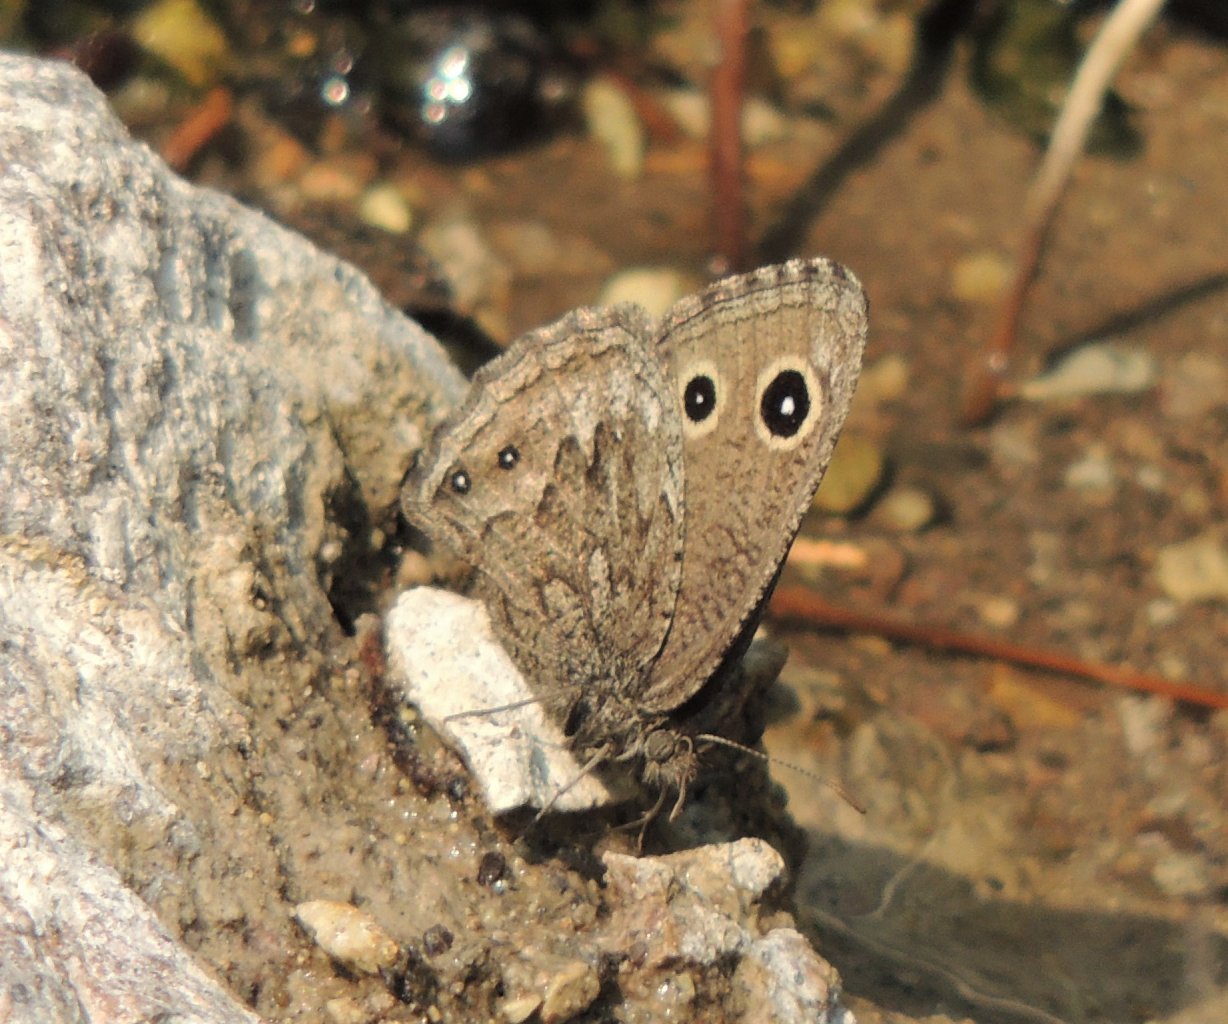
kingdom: Animalia
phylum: Arthropoda
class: Insecta
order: Lepidoptera
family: Nymphalidae
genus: Cercyonis
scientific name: Cercyonis oetus
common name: Small Wood-Nymph
